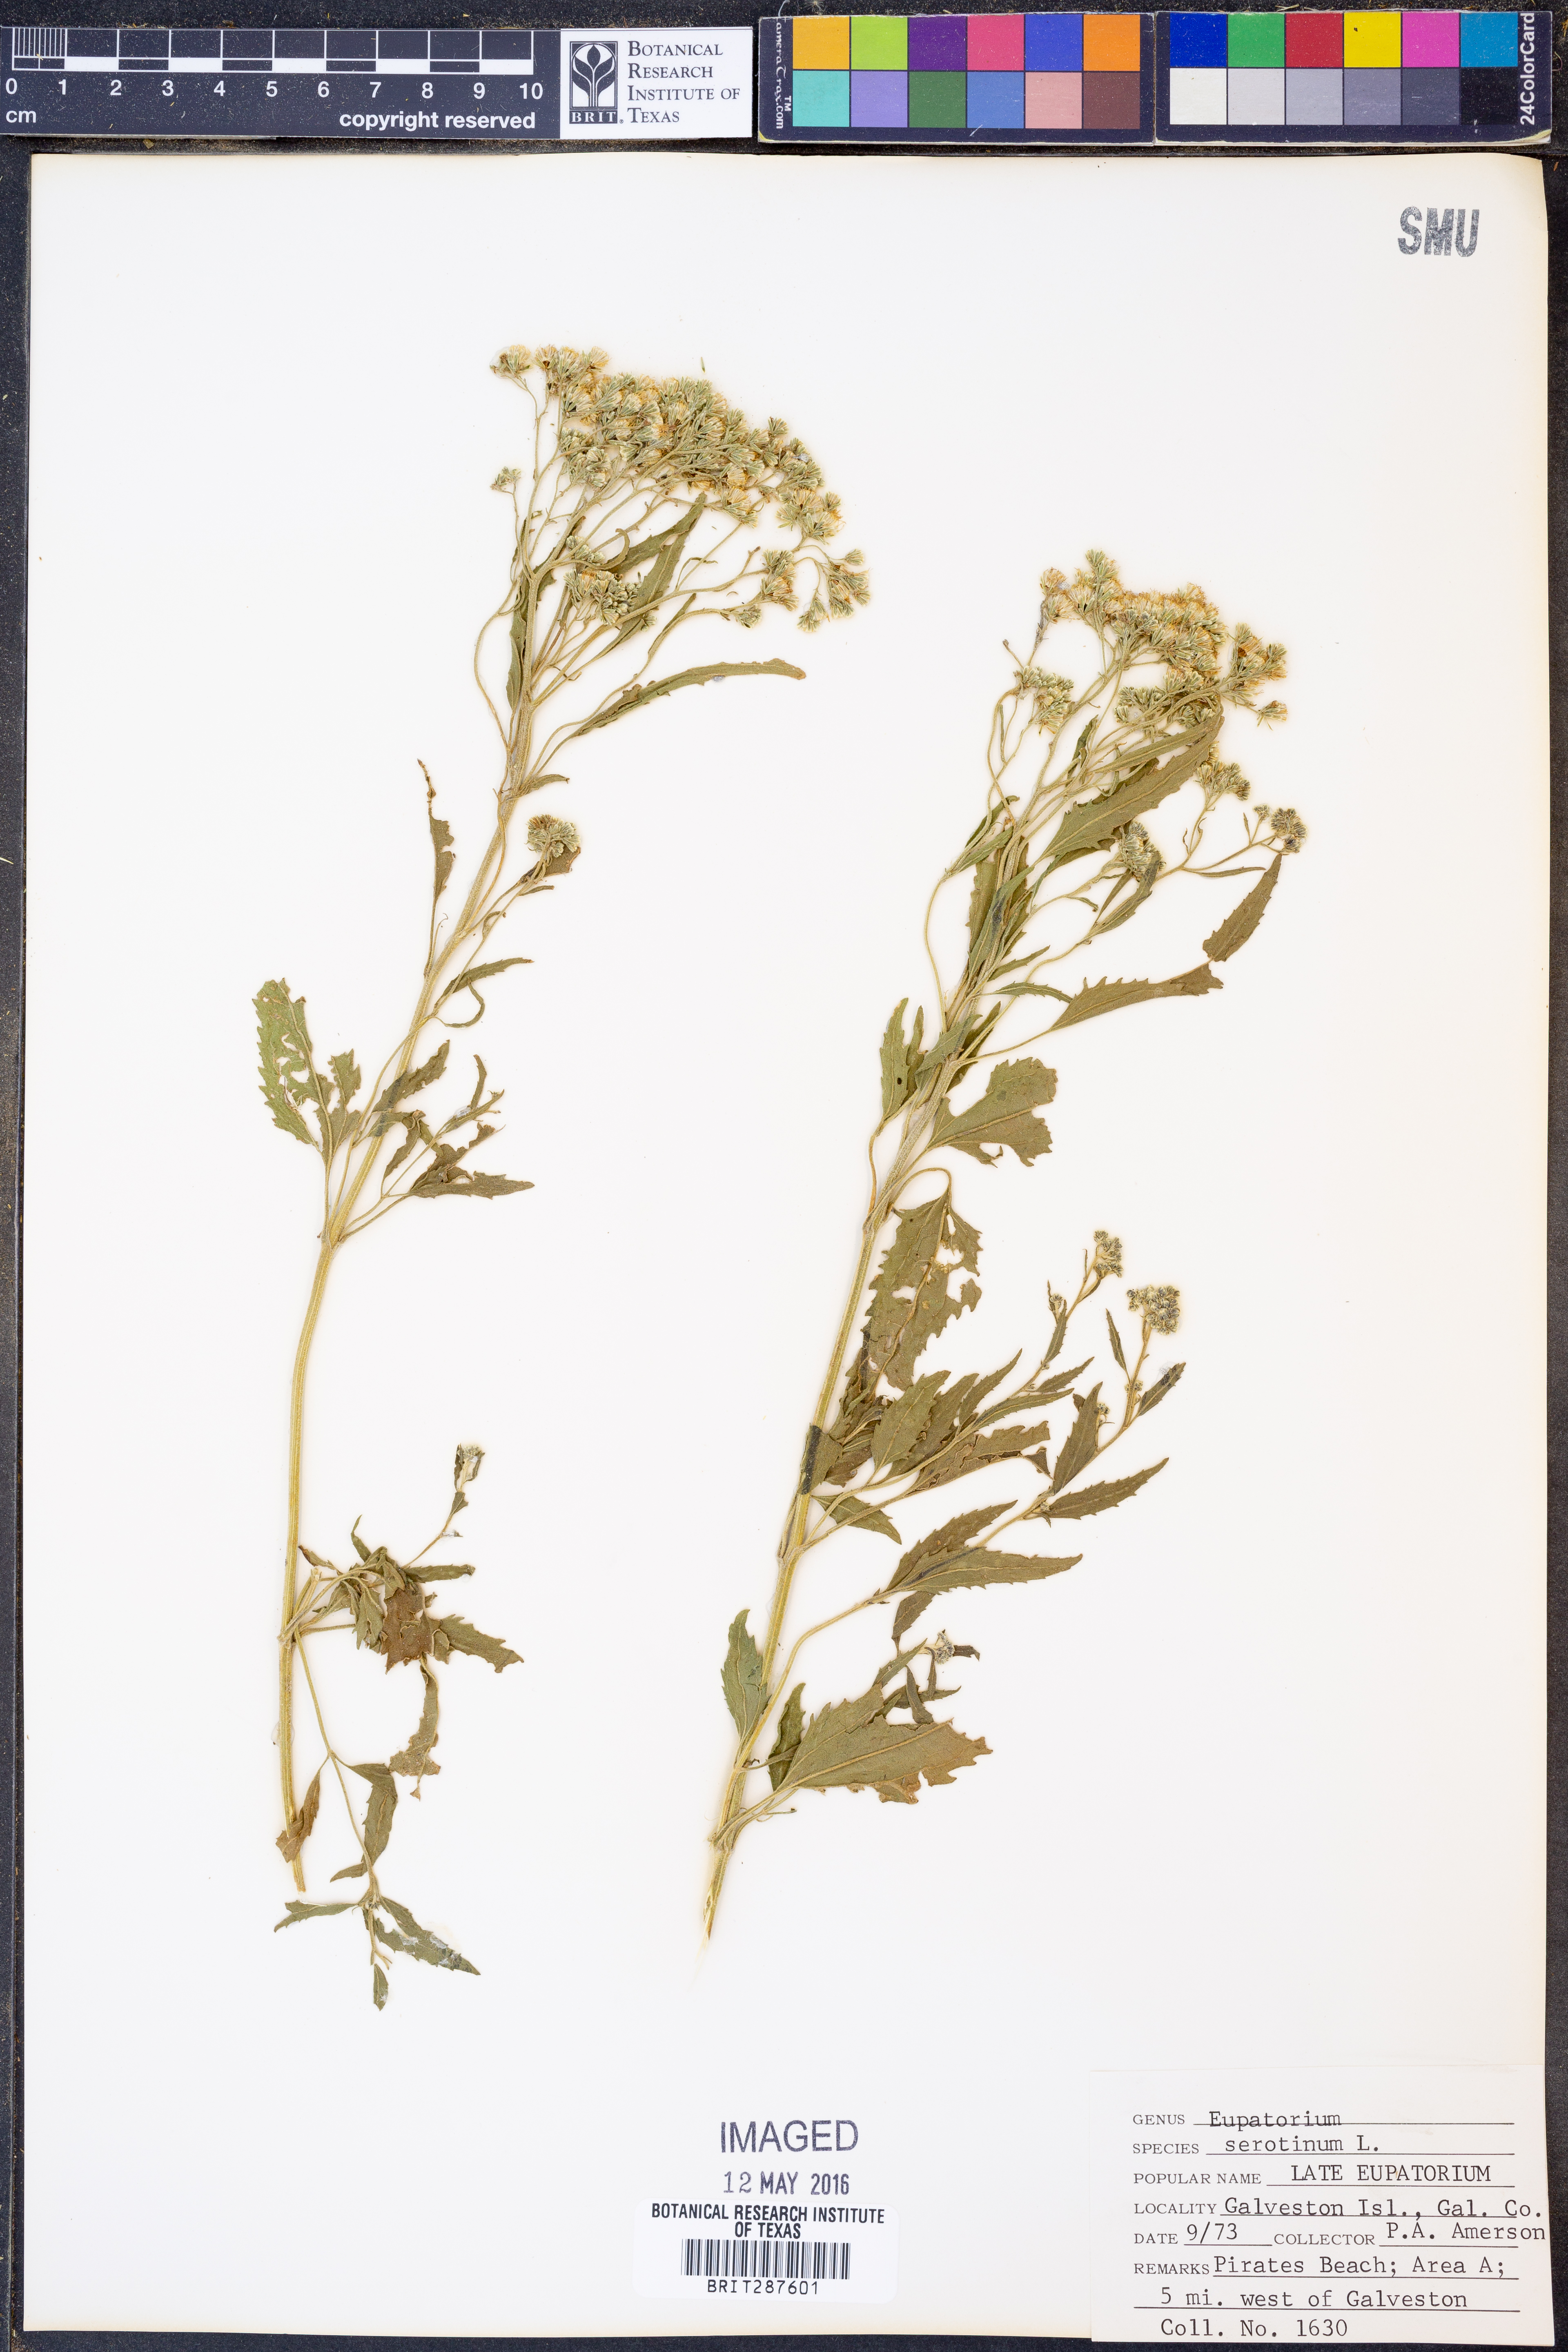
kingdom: Plantae
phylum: Tracheophyta
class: Magnoliopsida
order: Asterales
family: Asteraceae
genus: Eupatorium
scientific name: Eupatorium serotinum
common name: Late boneset
